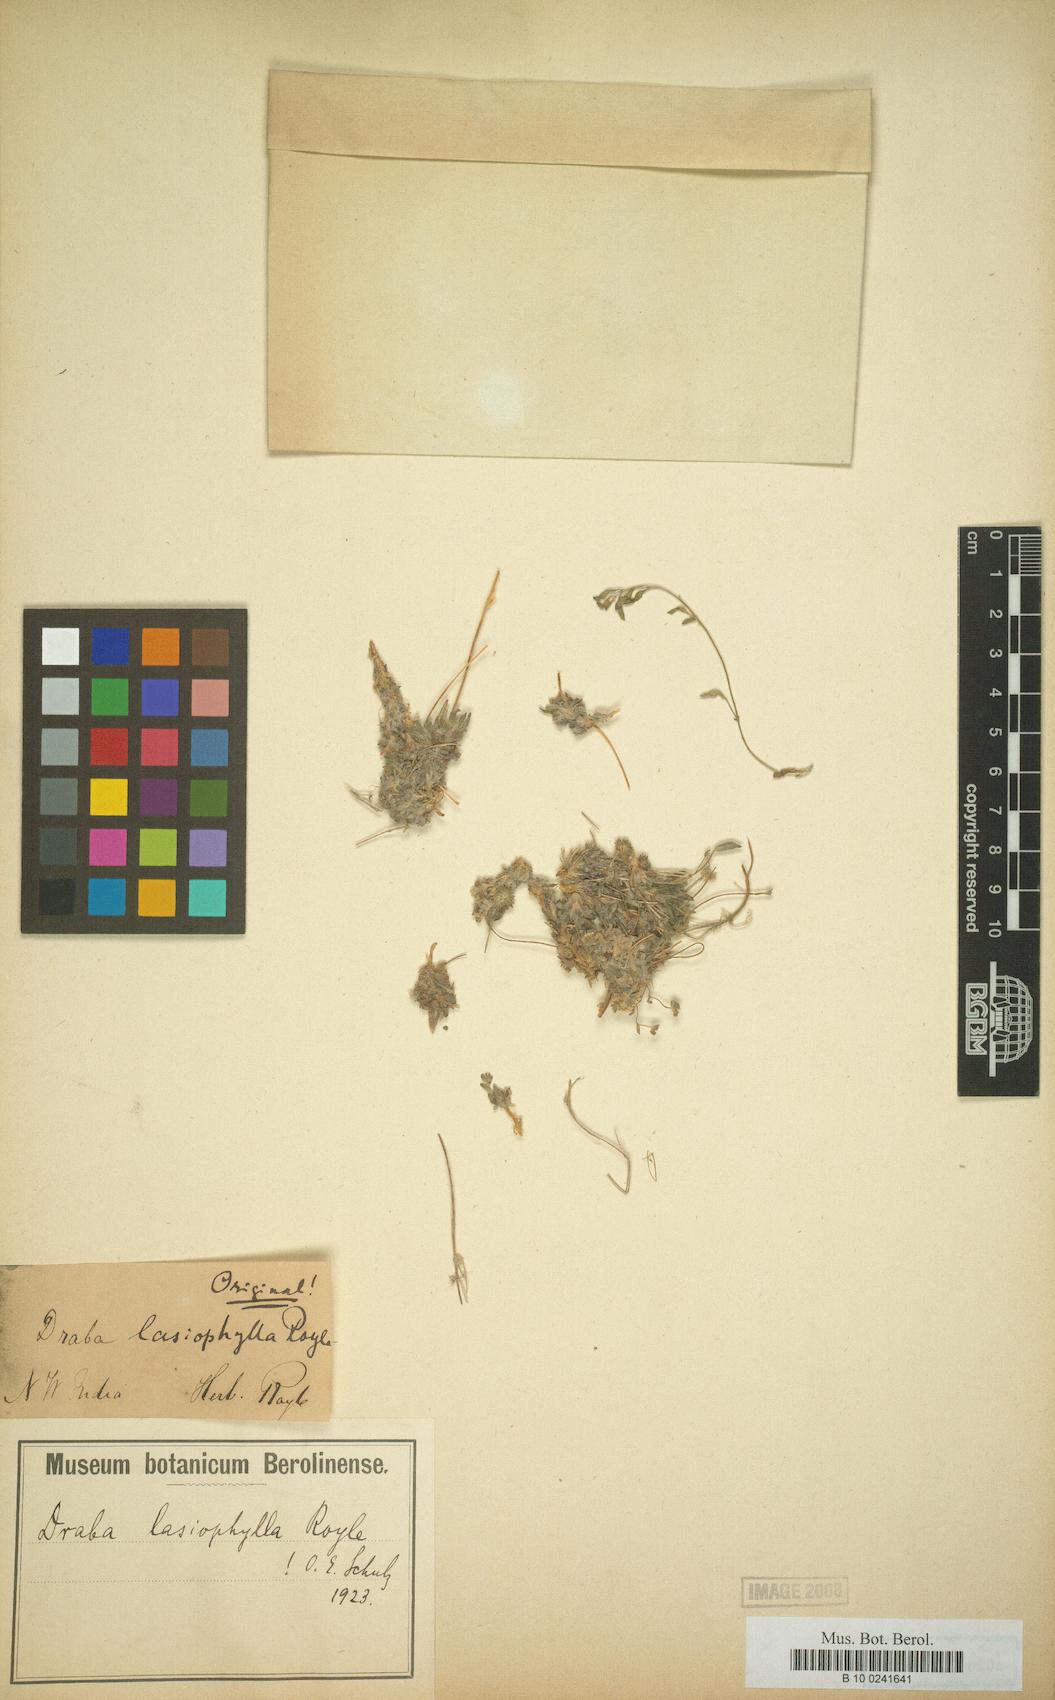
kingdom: Plantae
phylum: Tracheophyta
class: Magnoliopsida
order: Brassicales
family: Brassicaceae
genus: Draba
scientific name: Draba lasiophylla
